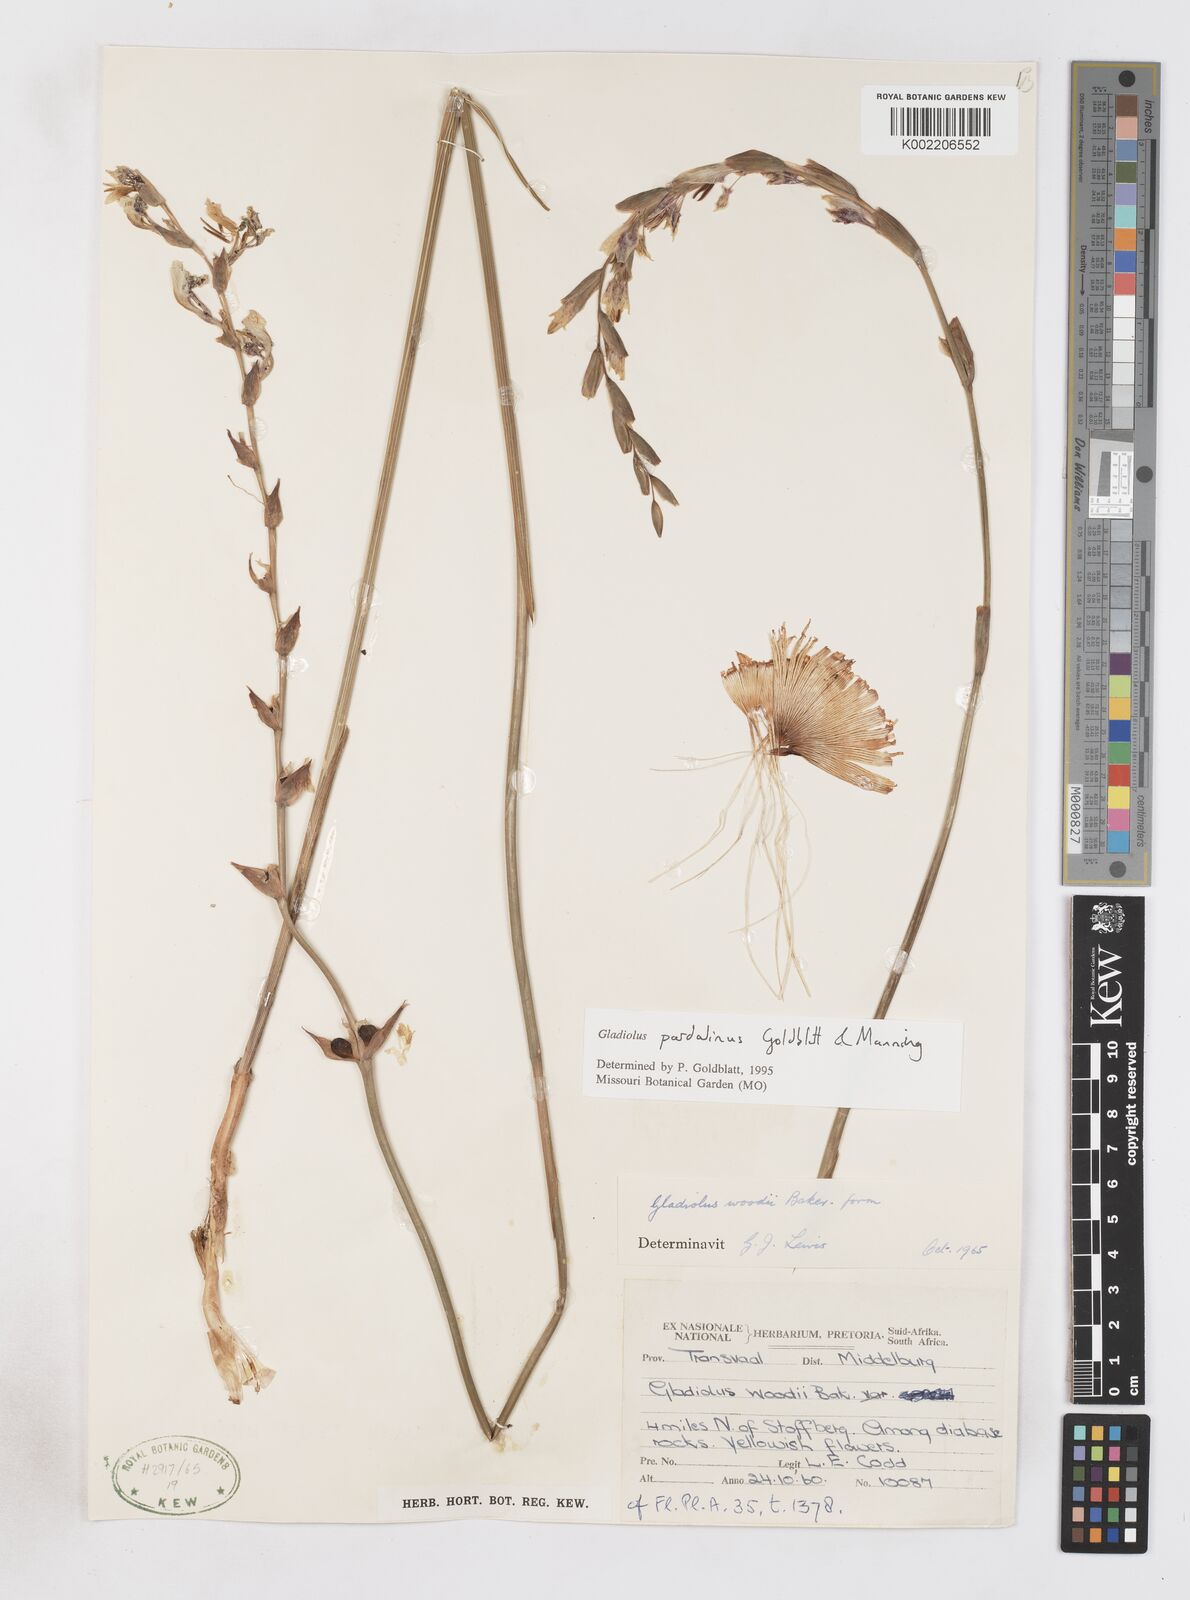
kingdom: Plantae
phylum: Tracheophyta
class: Liliopsida
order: Asparagales
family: Iridaceae
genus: Gladiolus
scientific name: Gladiolus pardalinus
